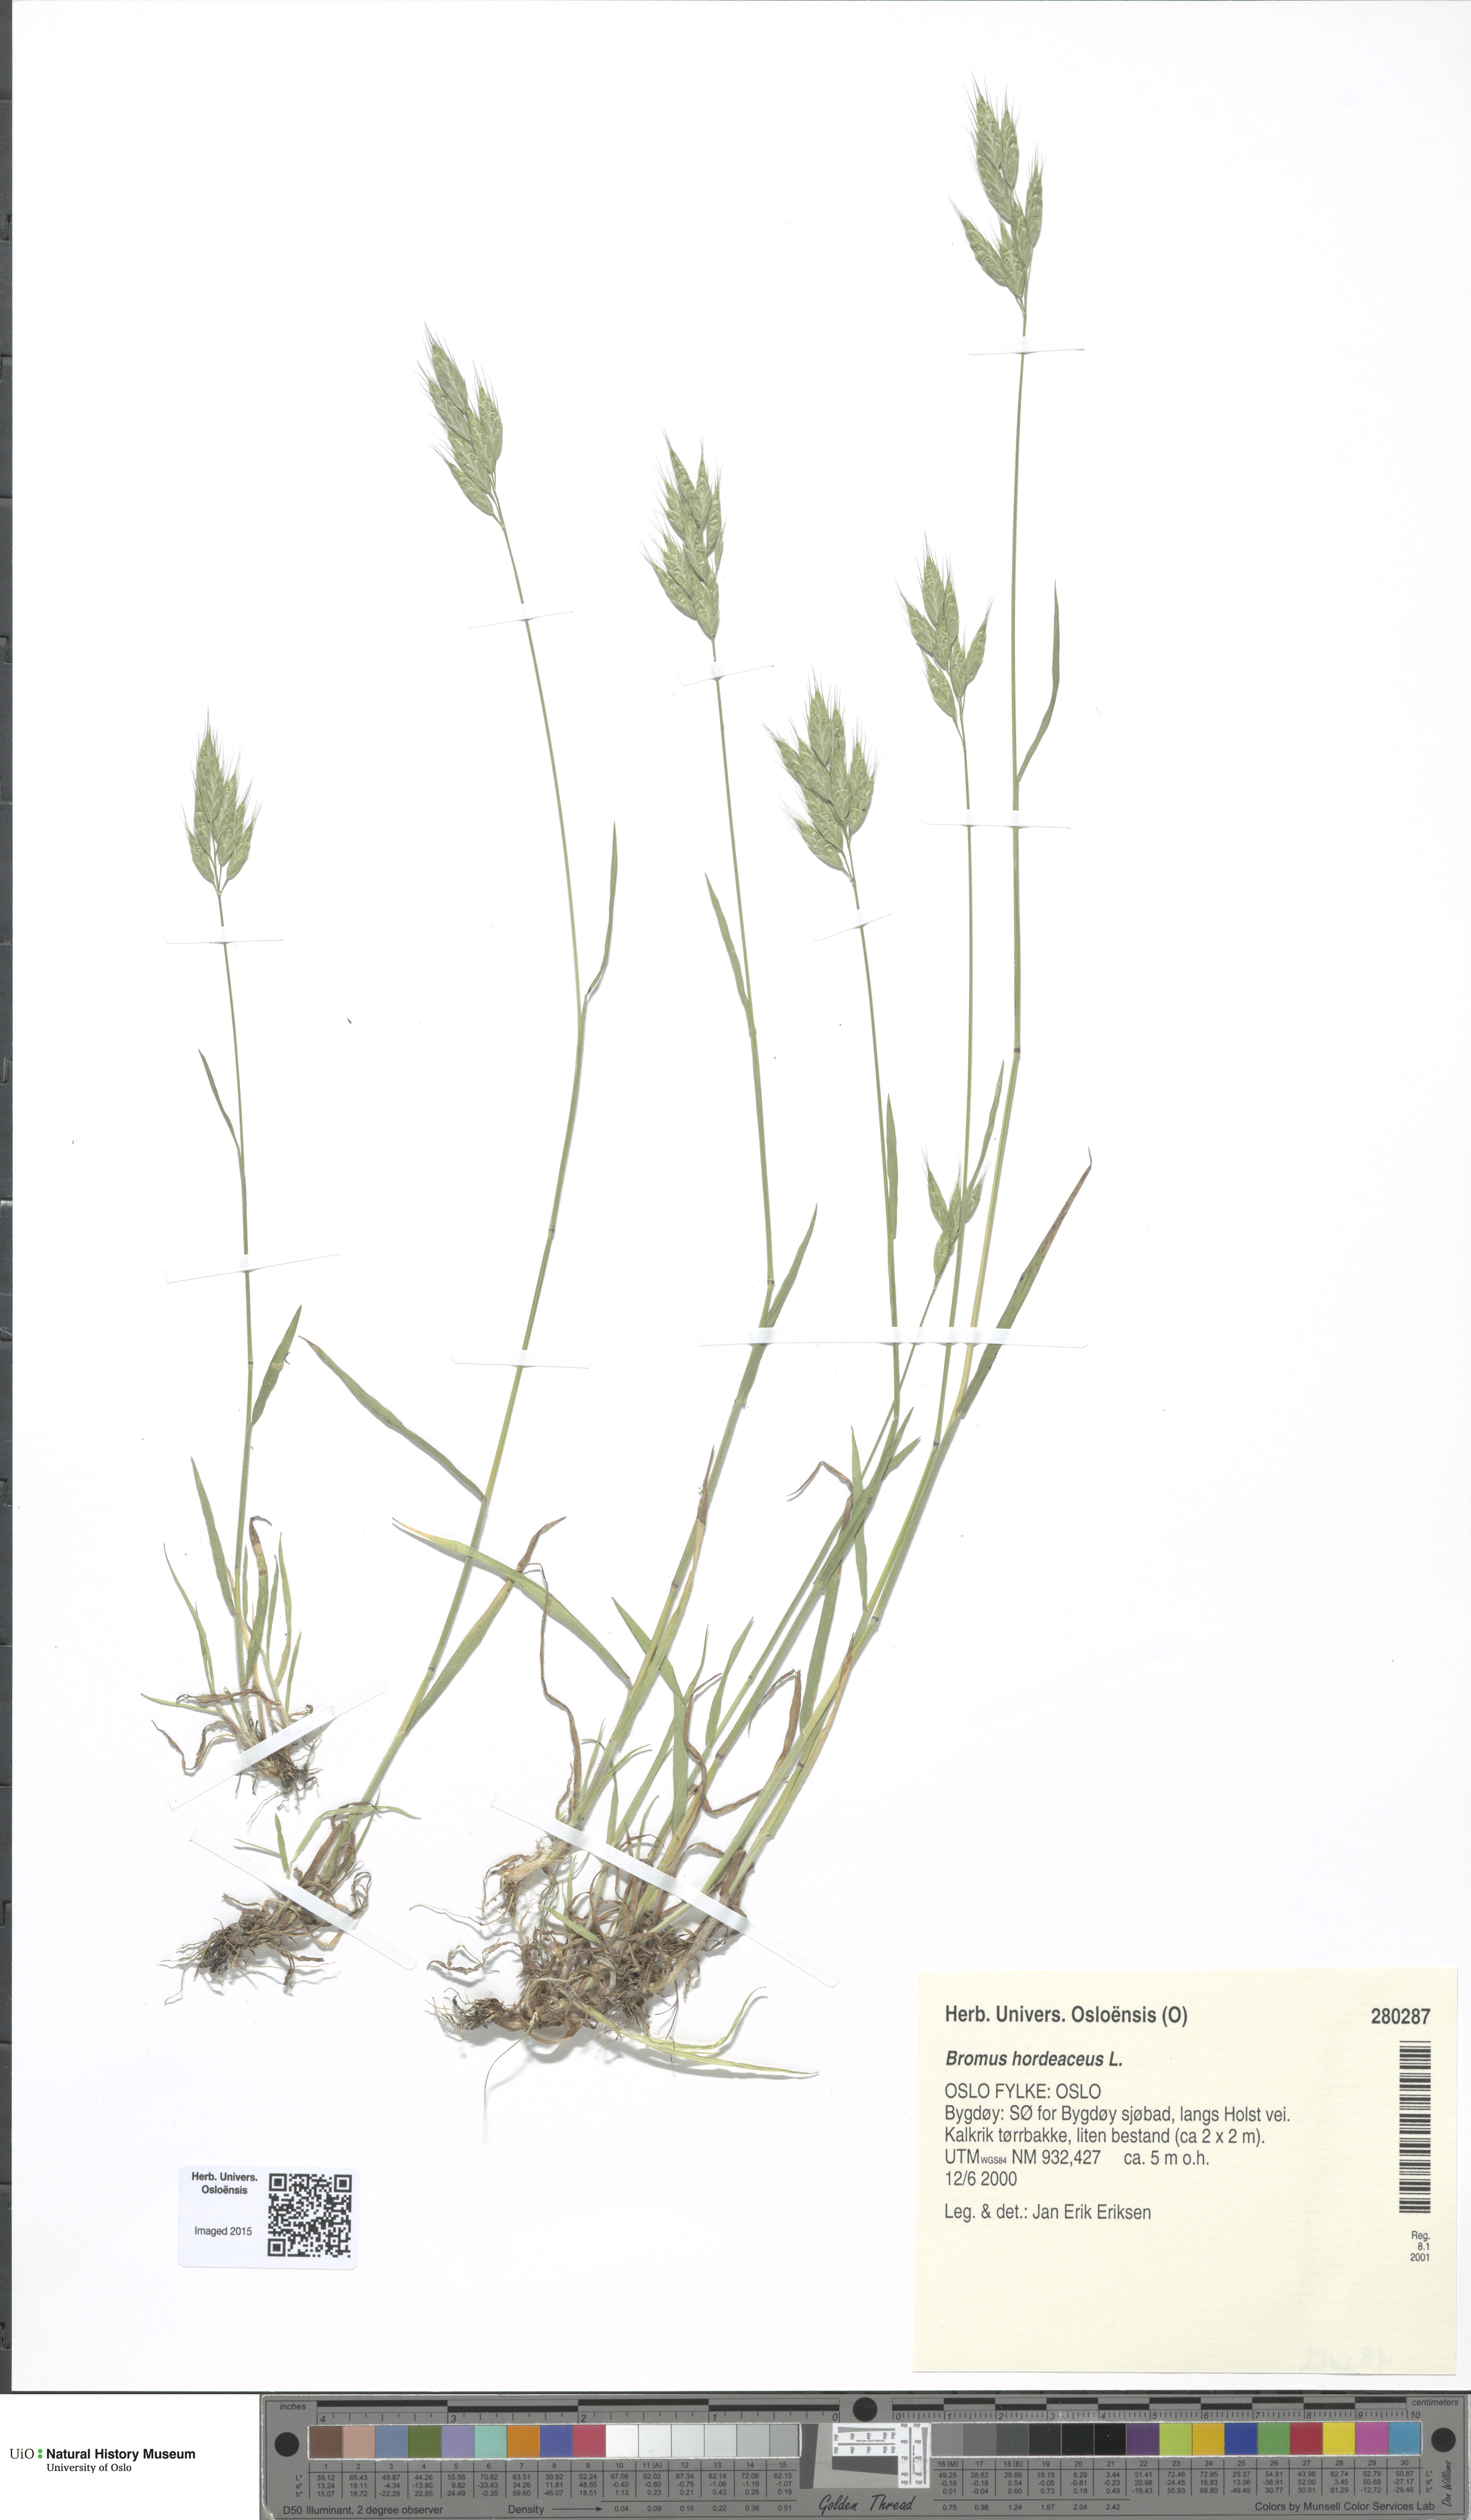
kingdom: Plantae
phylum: Tracheophyta
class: Liliopsida
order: Poales
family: Poaceae
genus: Bromus
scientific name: Bromus hordeaceus
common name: Soft brome
